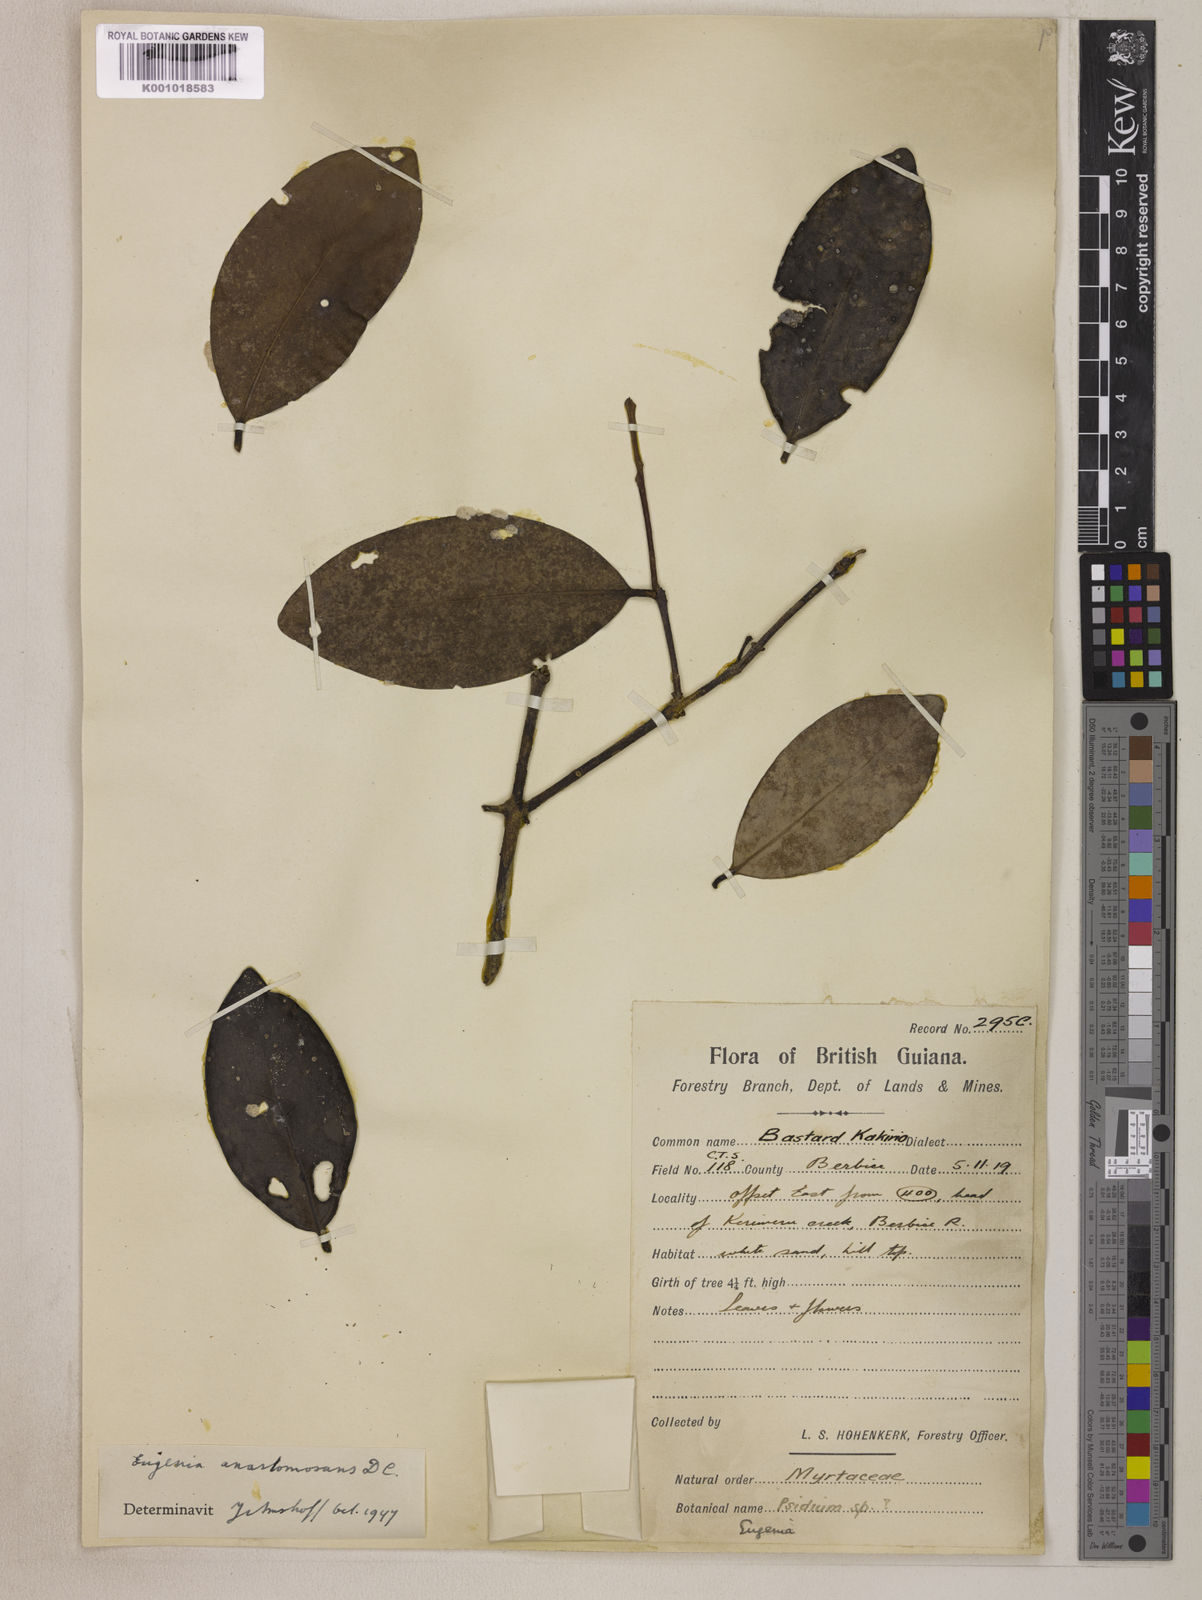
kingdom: Plantae
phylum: Tracheophyta
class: Magnoliopsida
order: Myrtales
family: Myrtaceae
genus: Eugenia
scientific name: Eugenia anastomosans
